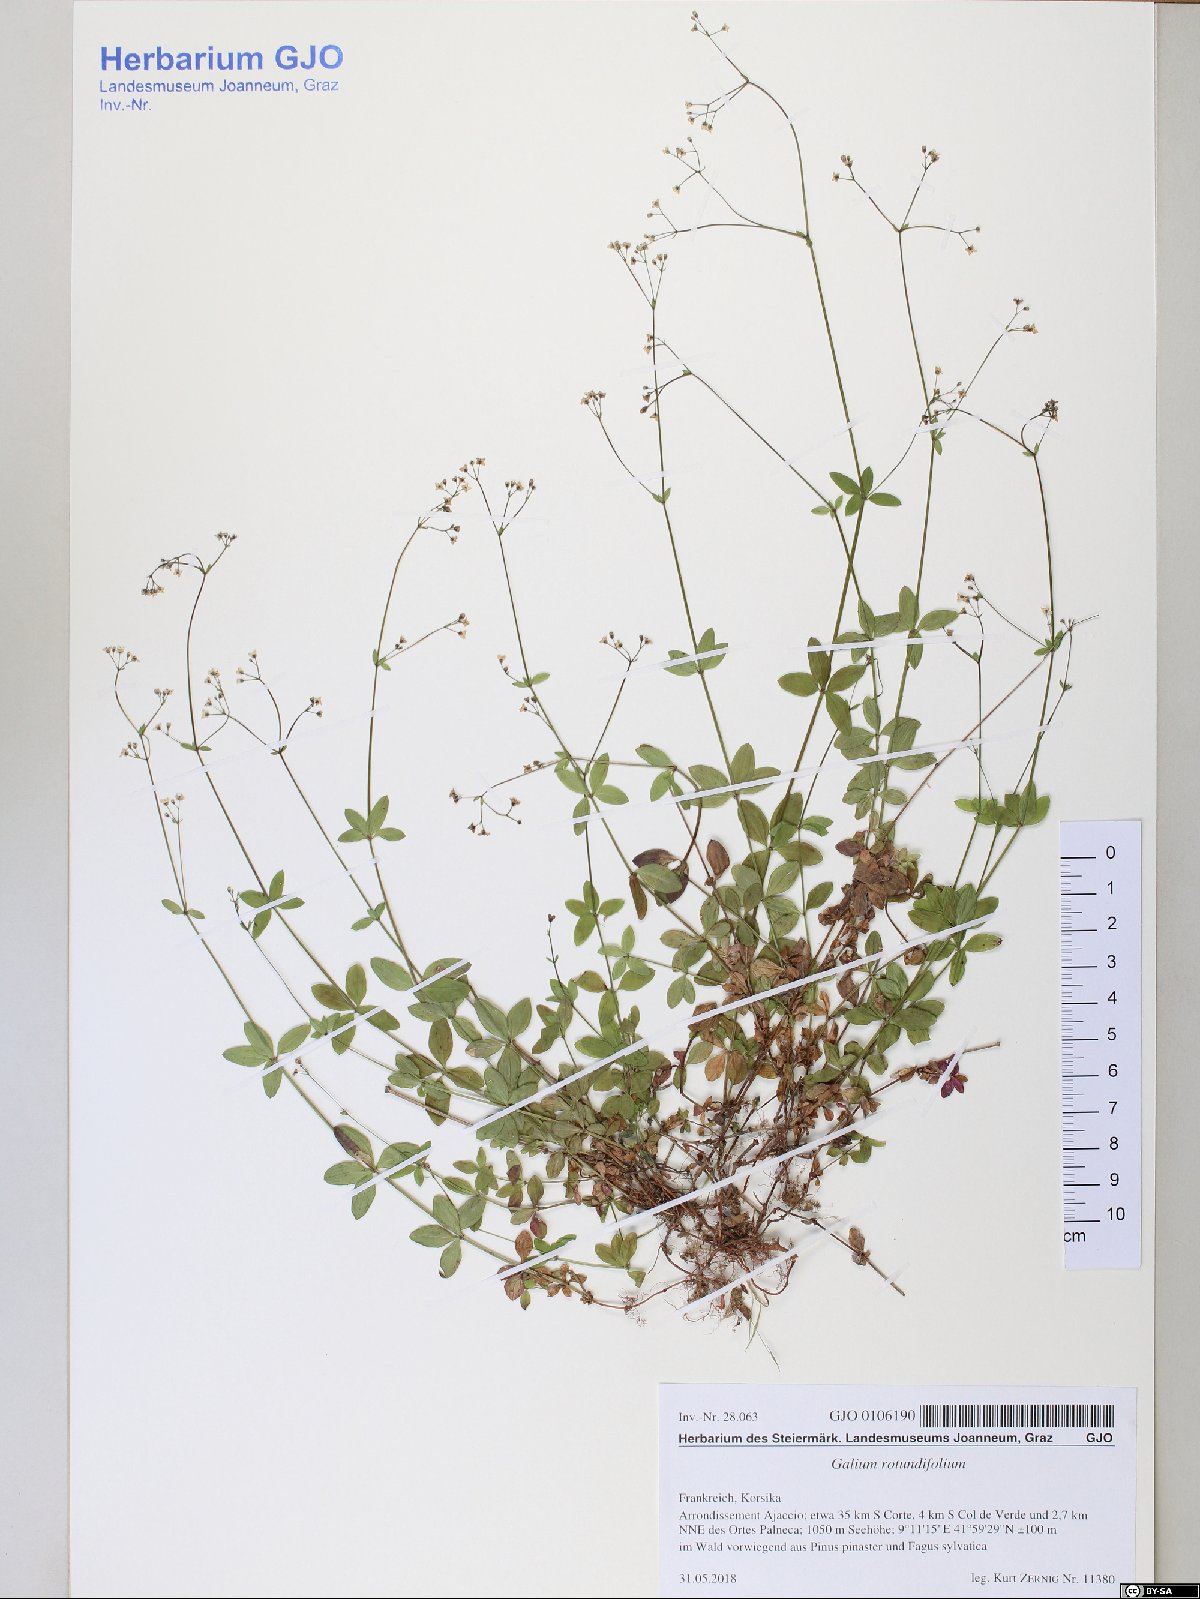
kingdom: Plantae
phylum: Tracheophyta
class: Magnoliopsida
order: Gentianales
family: Rubiaceae
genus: Galium
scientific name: Galium rotundifolium
